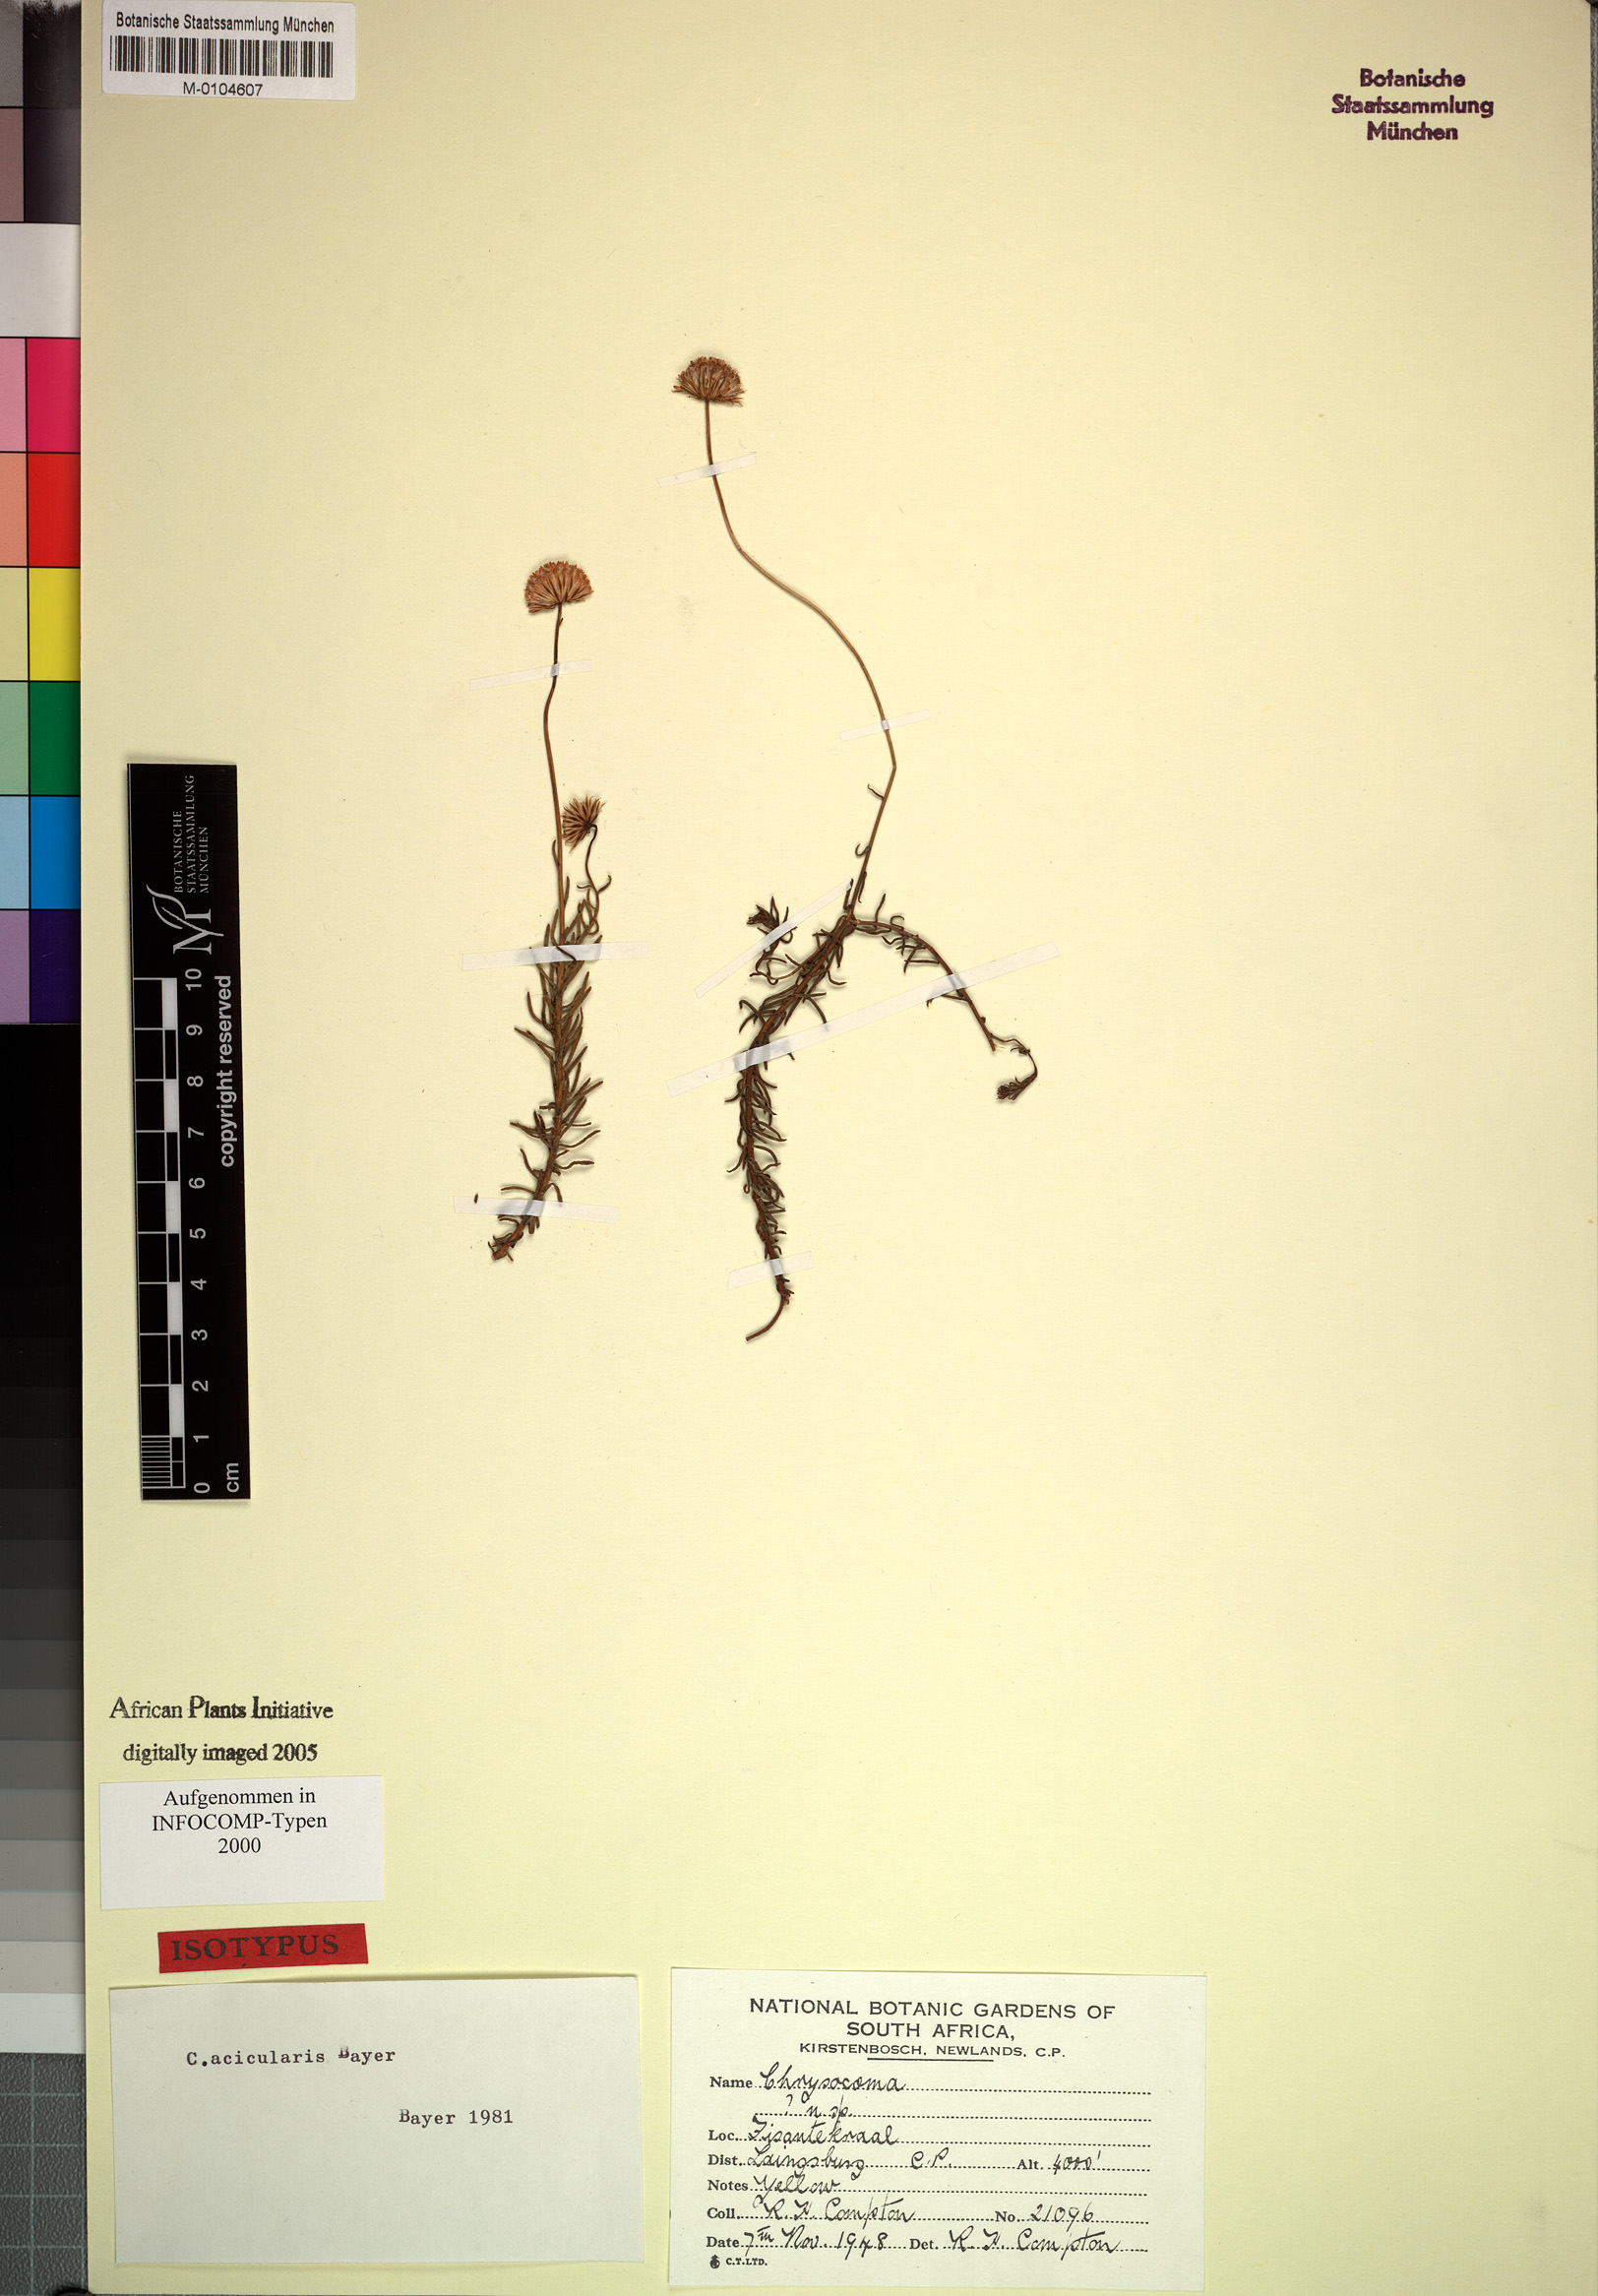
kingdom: Plantae
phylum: Tracheophyta
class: Magnoliopsida
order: Asterales
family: Asteraceae
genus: Chrysocoma
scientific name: Chrysocoma acicularis
